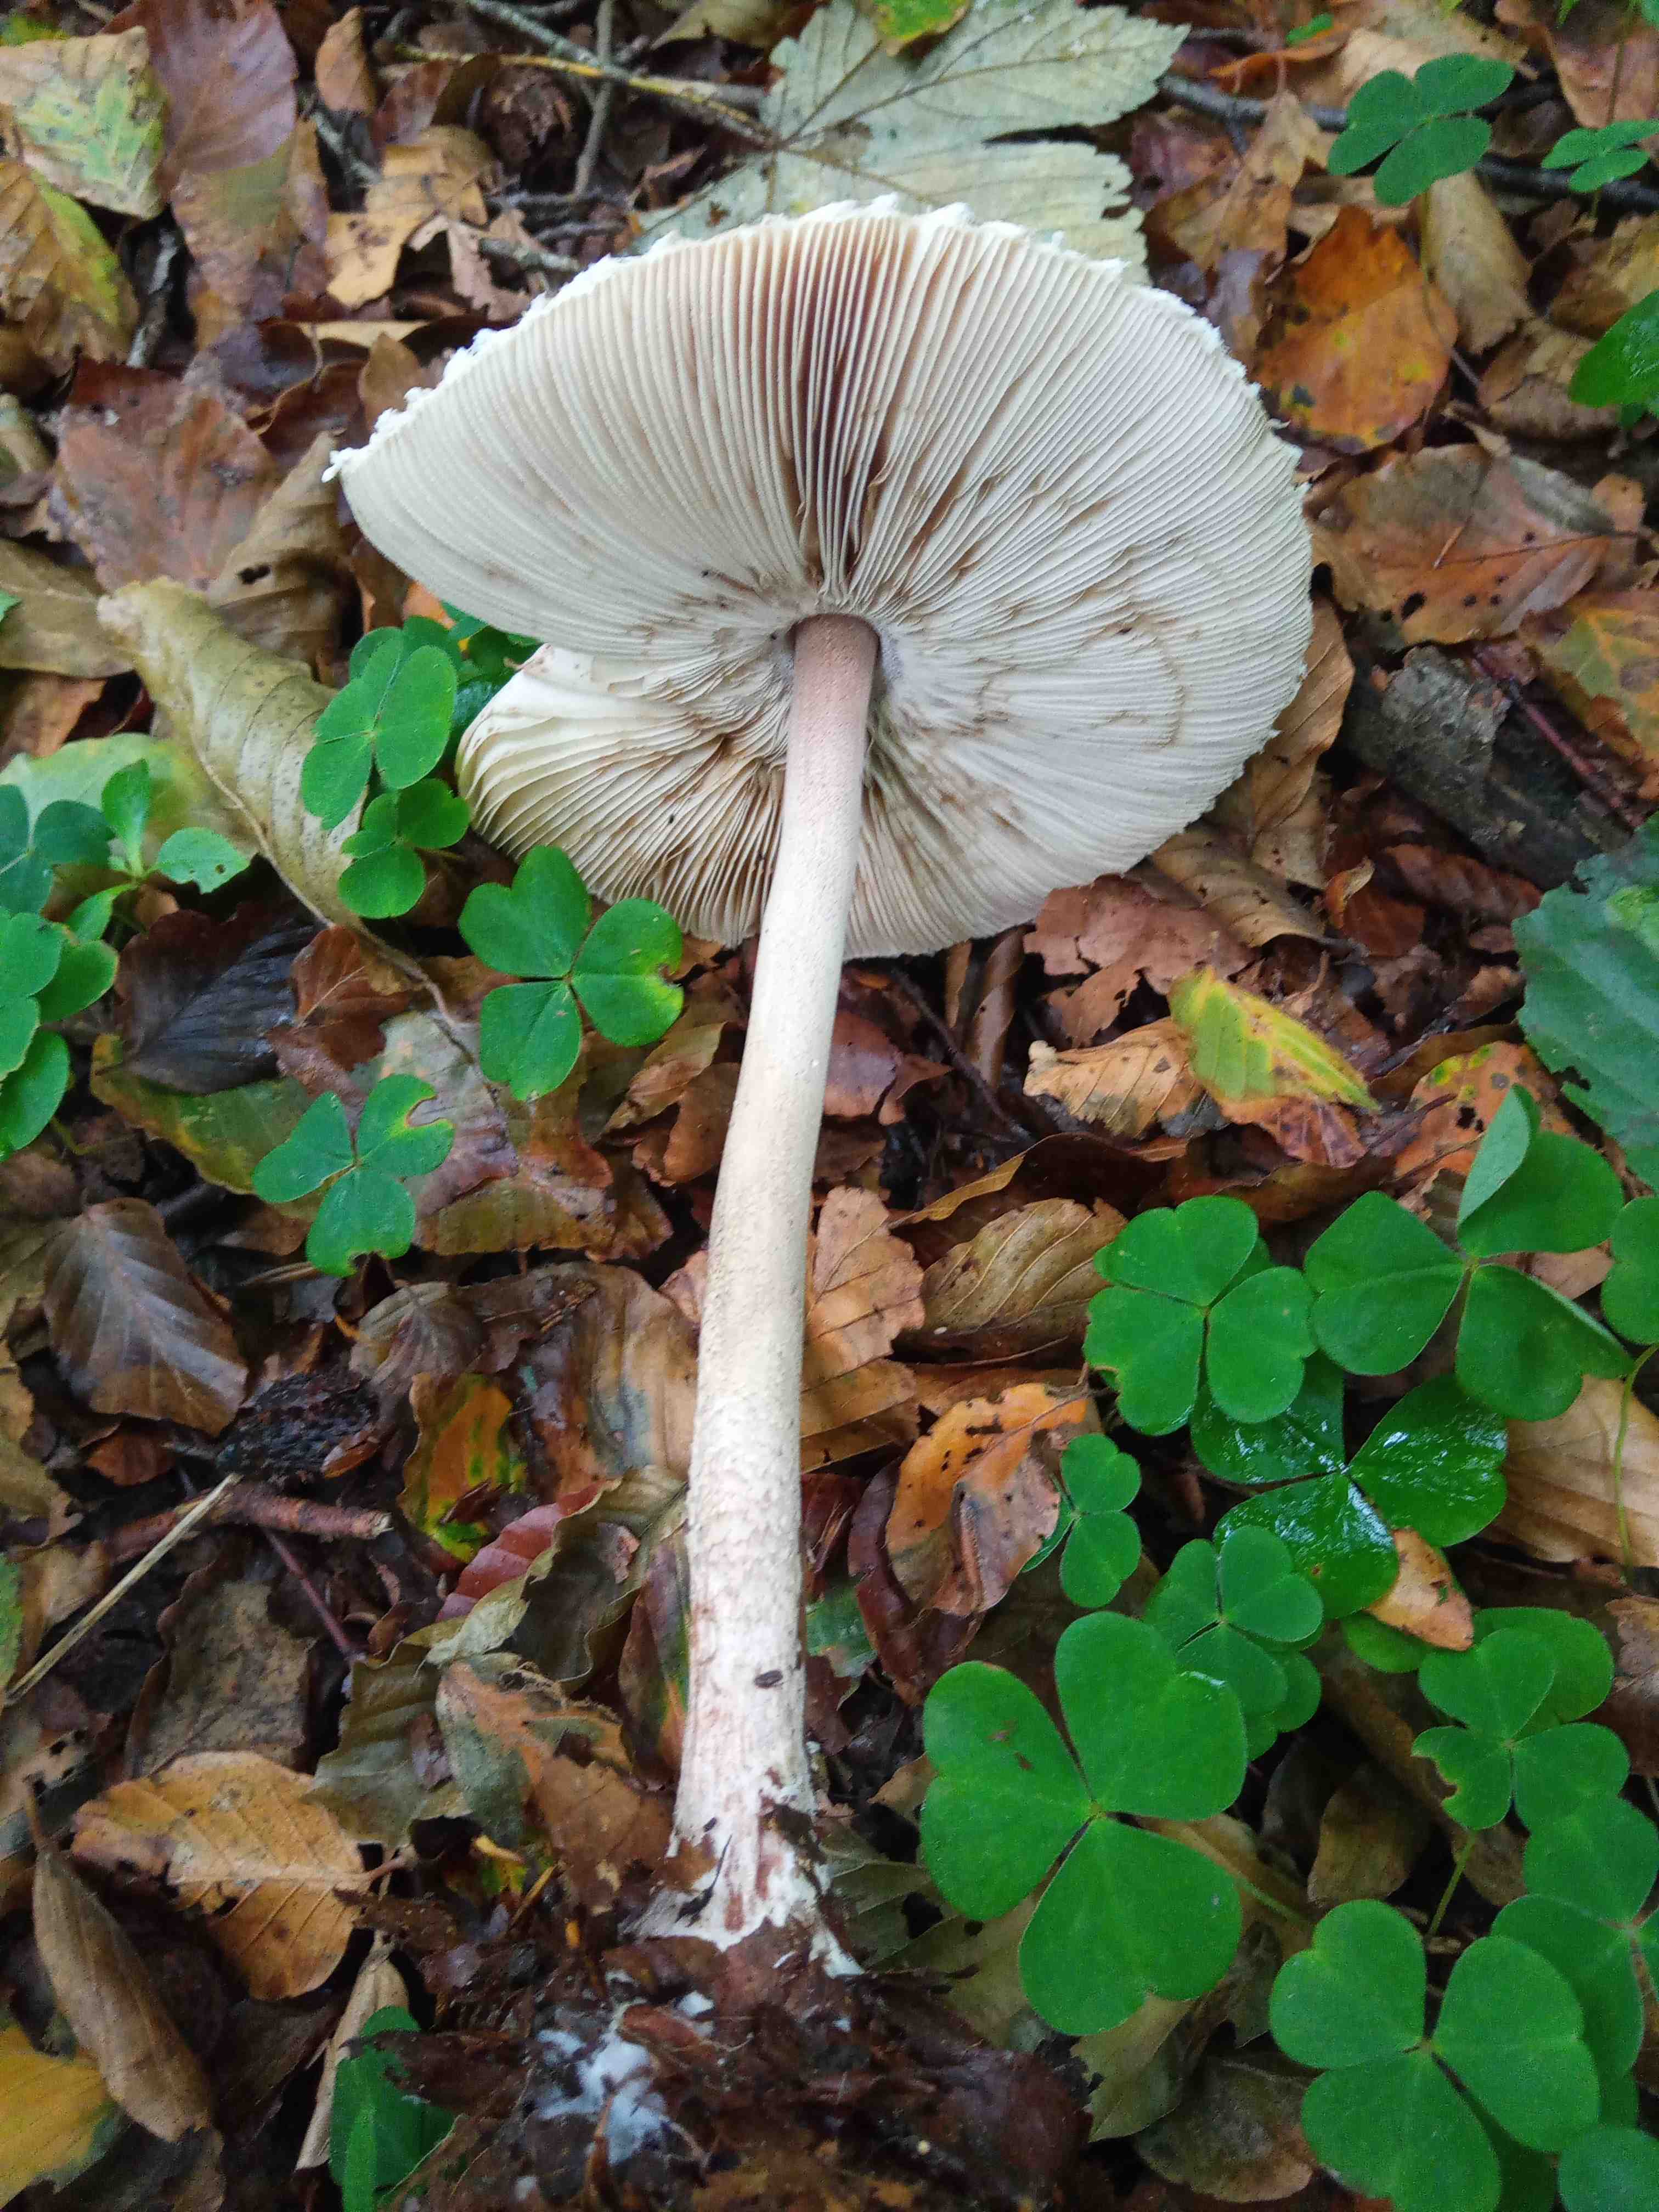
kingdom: Fungi
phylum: Basidiomycota
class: Agaricomycetes
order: Agaricales
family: Agaricaceae
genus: Macrolepiota
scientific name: Macrolepiota fuliginosa
